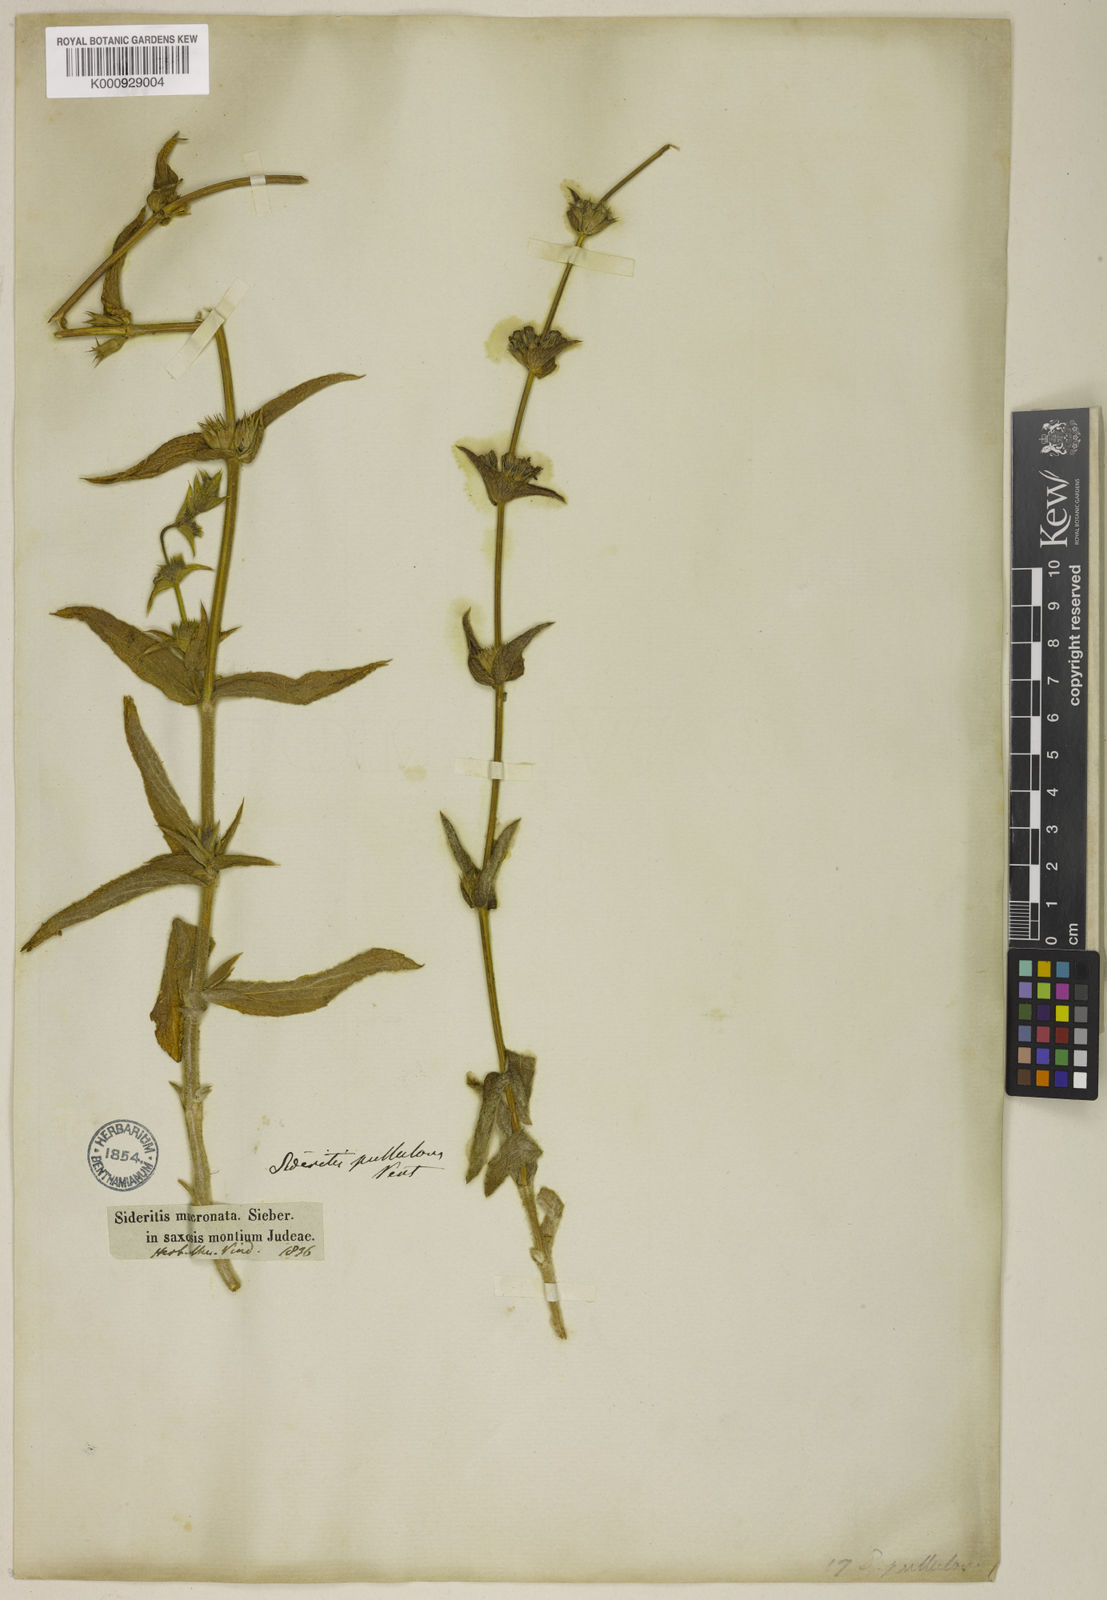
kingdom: Plantae
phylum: Tracheophyta
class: Magnoliopsida
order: Lamiales
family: Lamiaceae
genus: Sideritis
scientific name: Sideritis pullulans
